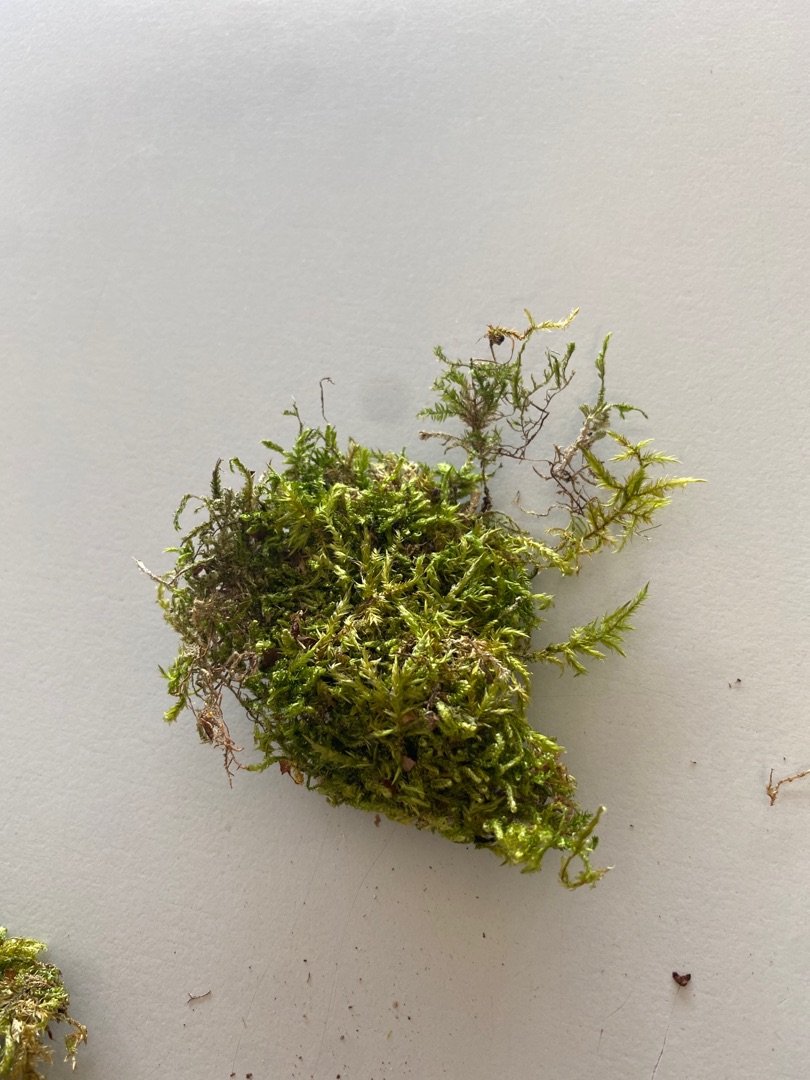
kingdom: Plantae
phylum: Bryophyta
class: Bryopsida
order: Hypnales
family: Pylaisiaceae
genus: Calliergonella
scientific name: Calliergonella cuspidata
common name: Spids spydmos
